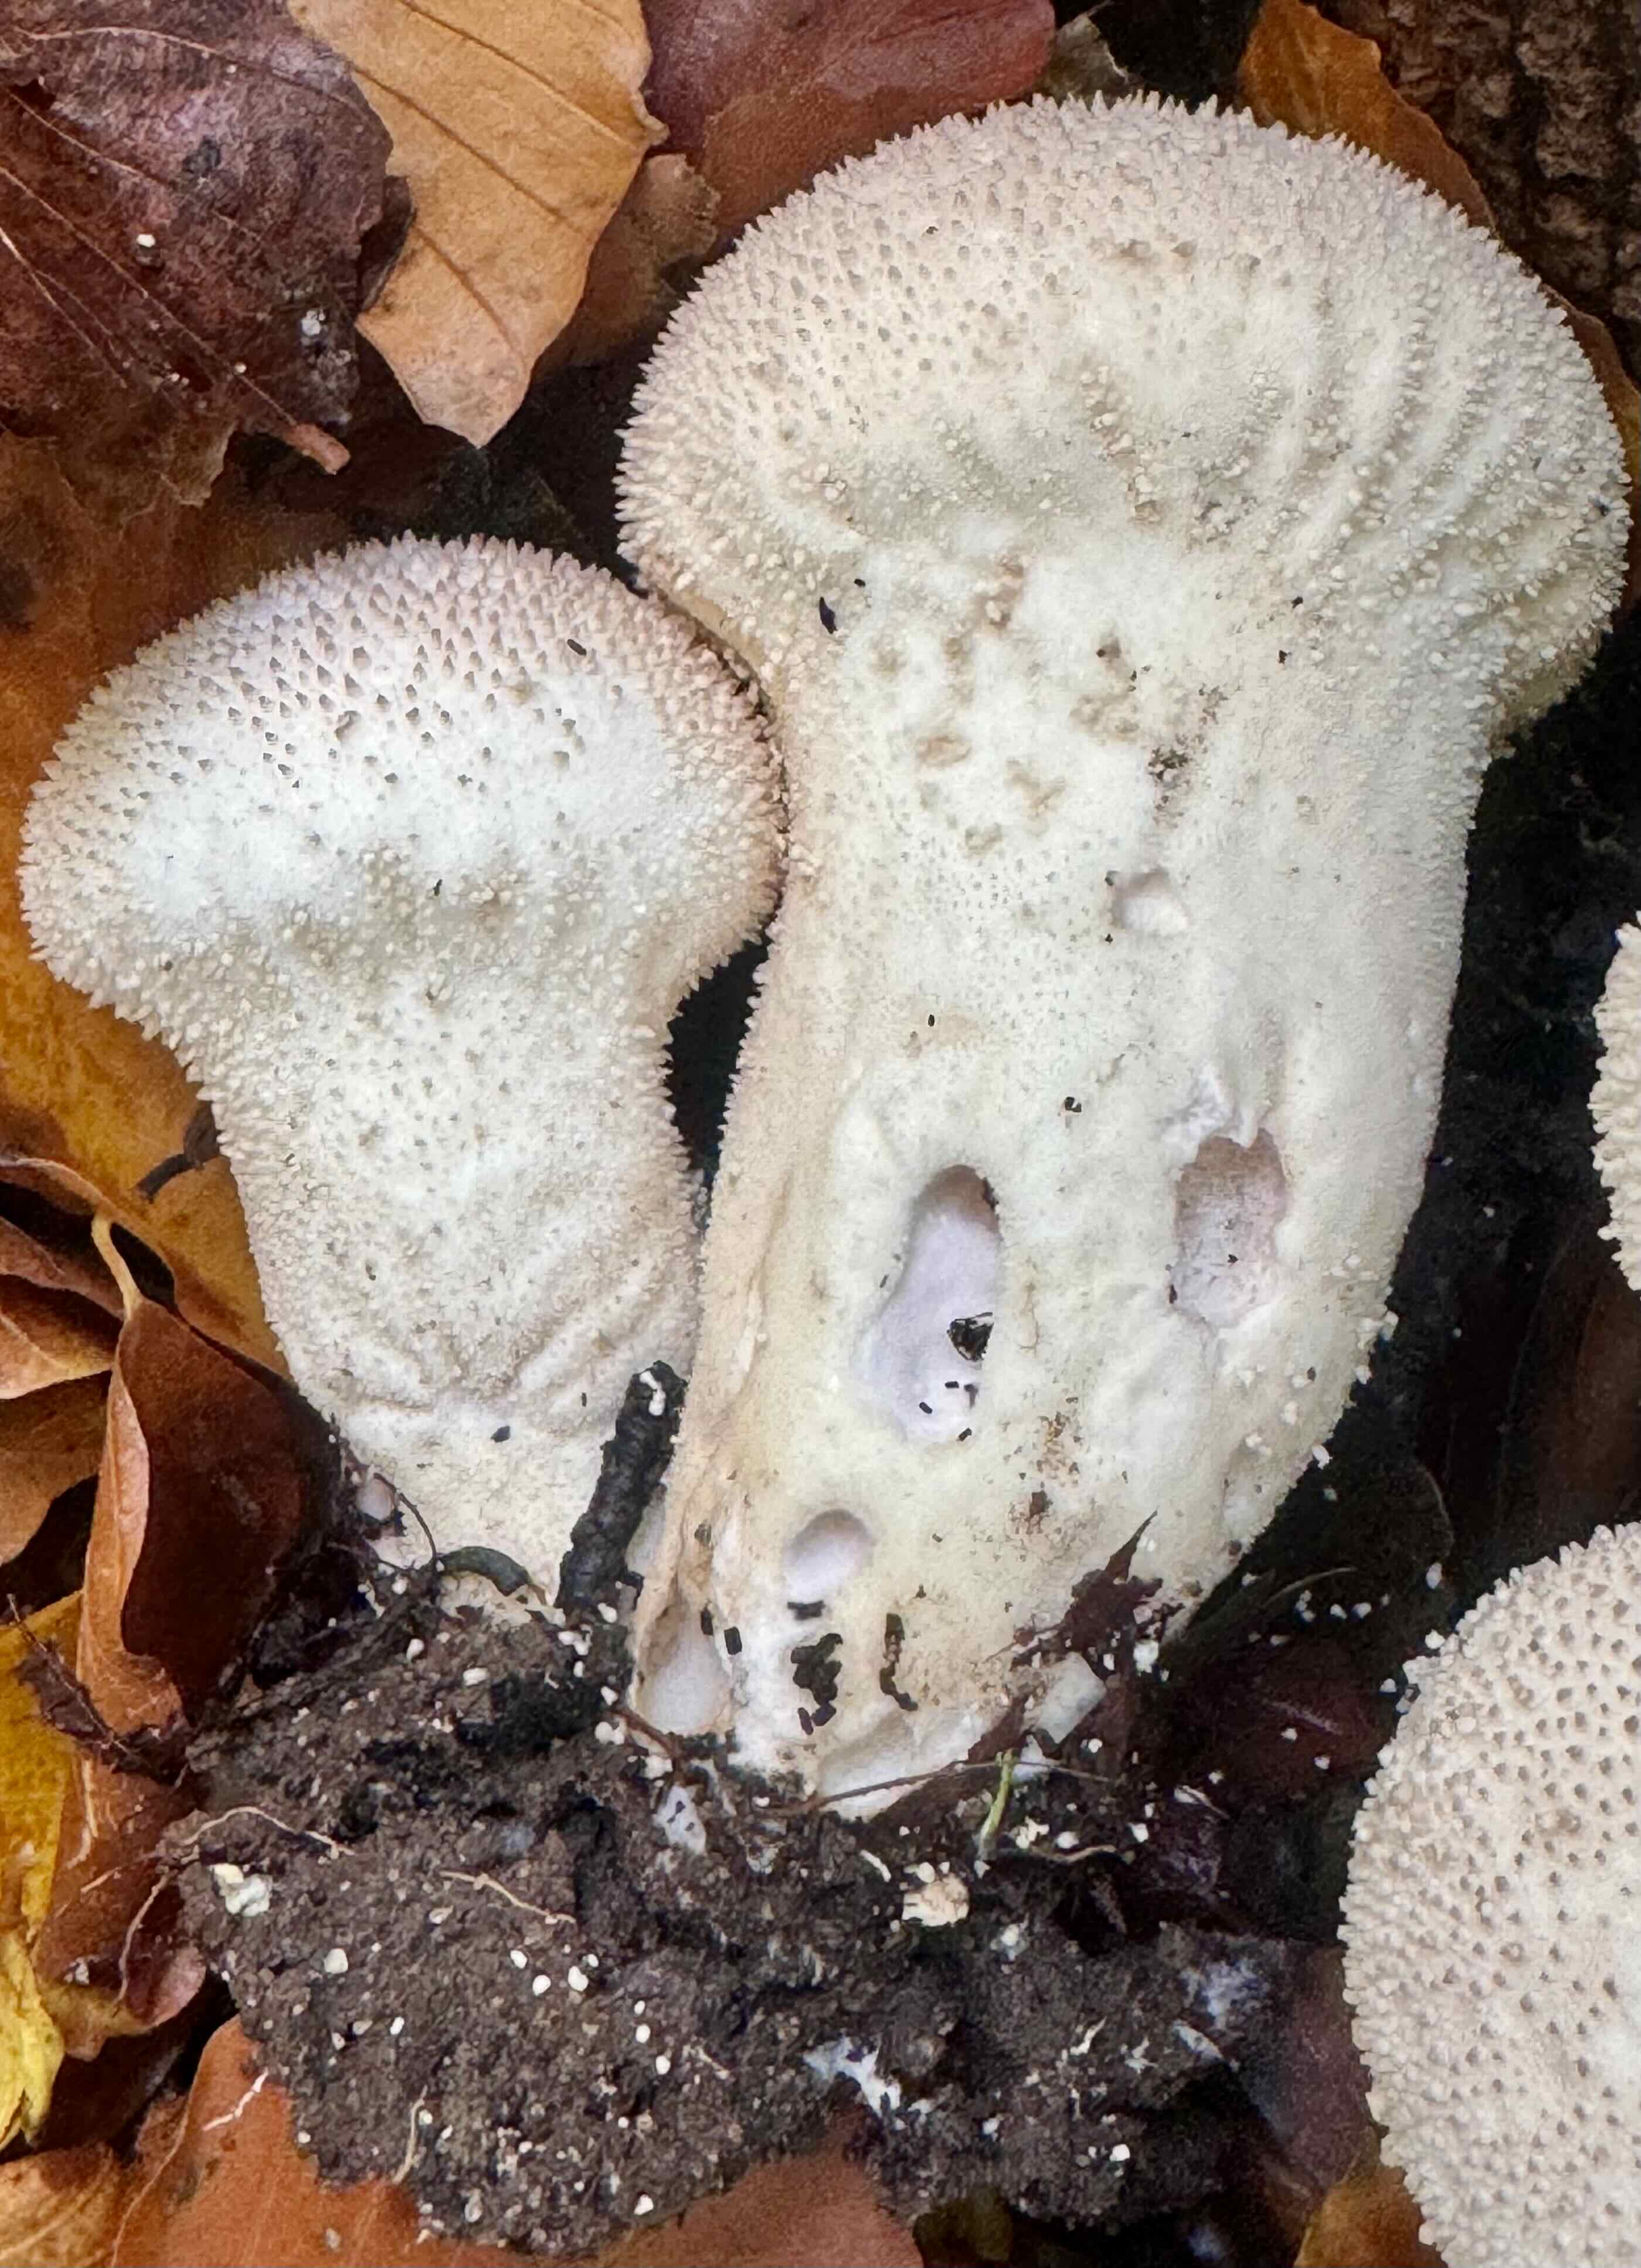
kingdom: Fungi
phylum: Basidiomycota
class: Agaricomycetes
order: Agaricales
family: Lycoperdaceae
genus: Lycoperdon
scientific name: Lycoperdon excipuliforme
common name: højstokket støvbold
